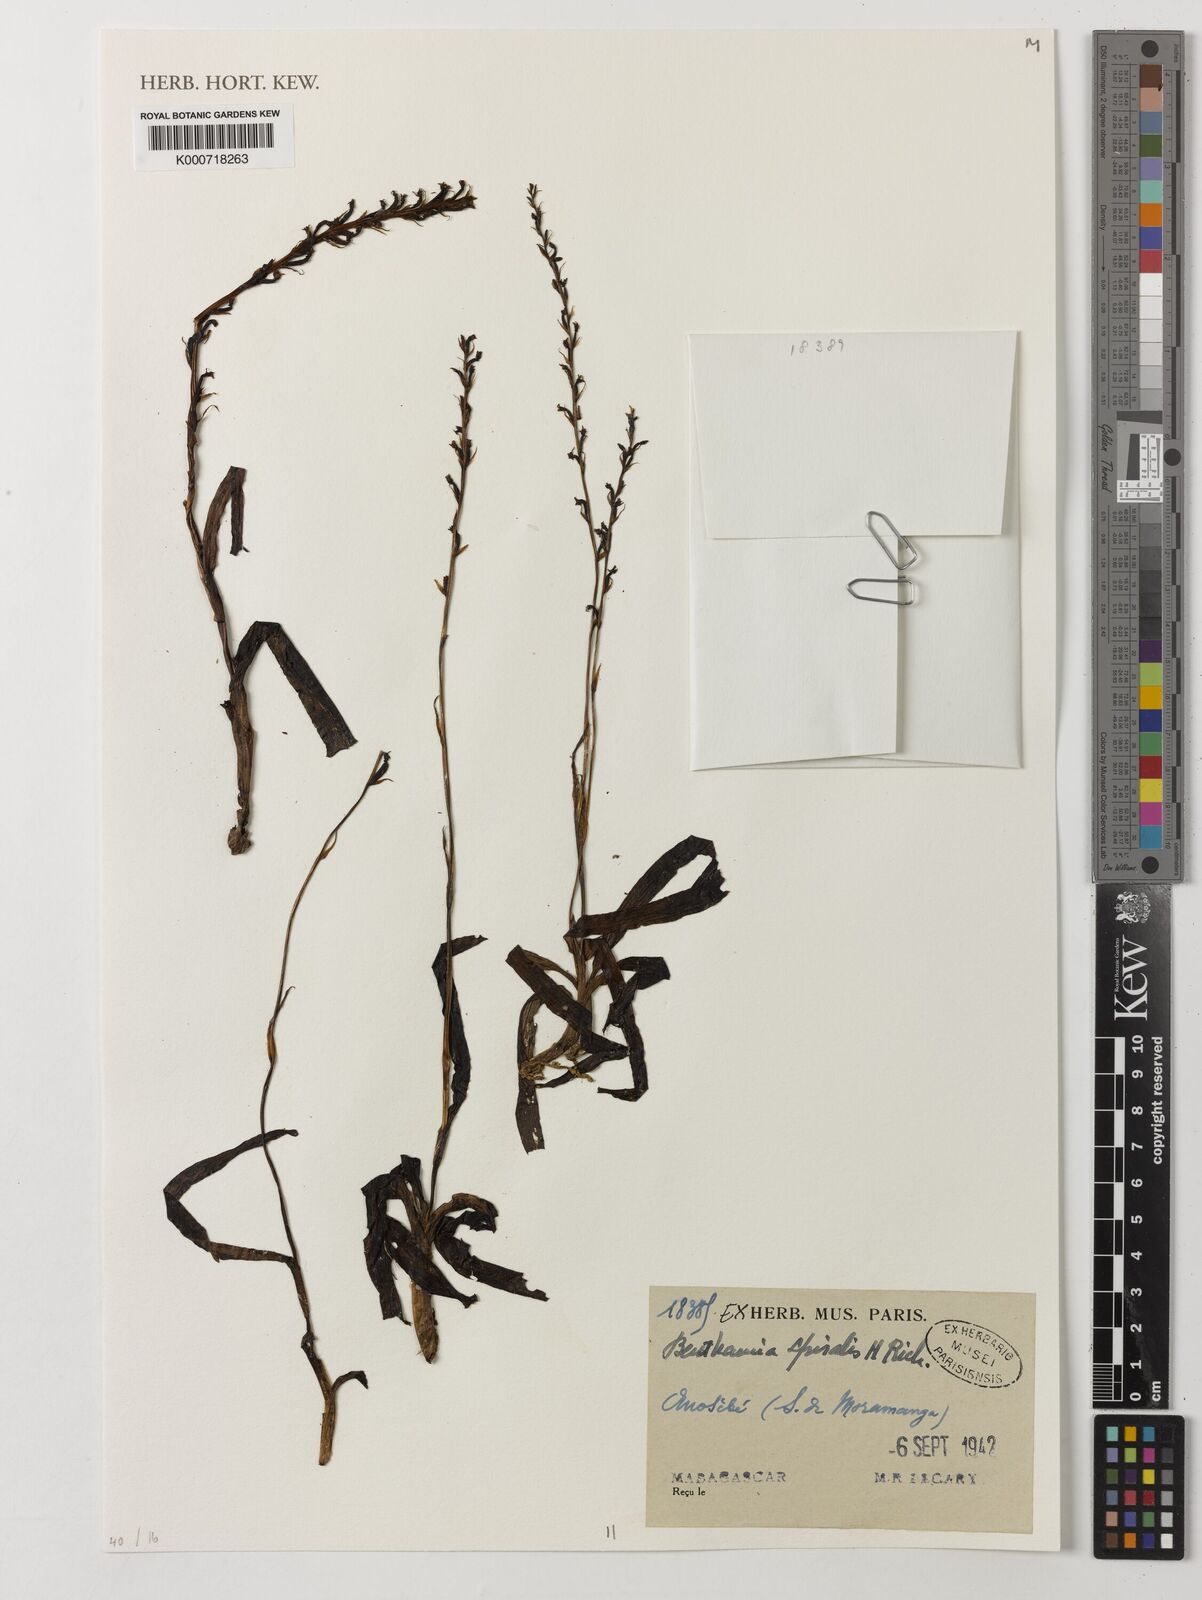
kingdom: Plantae
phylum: Tracheophyta
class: Liliopsida
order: Asparagales
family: Orchidaceae
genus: Benthamia
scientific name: Benthamia africana
